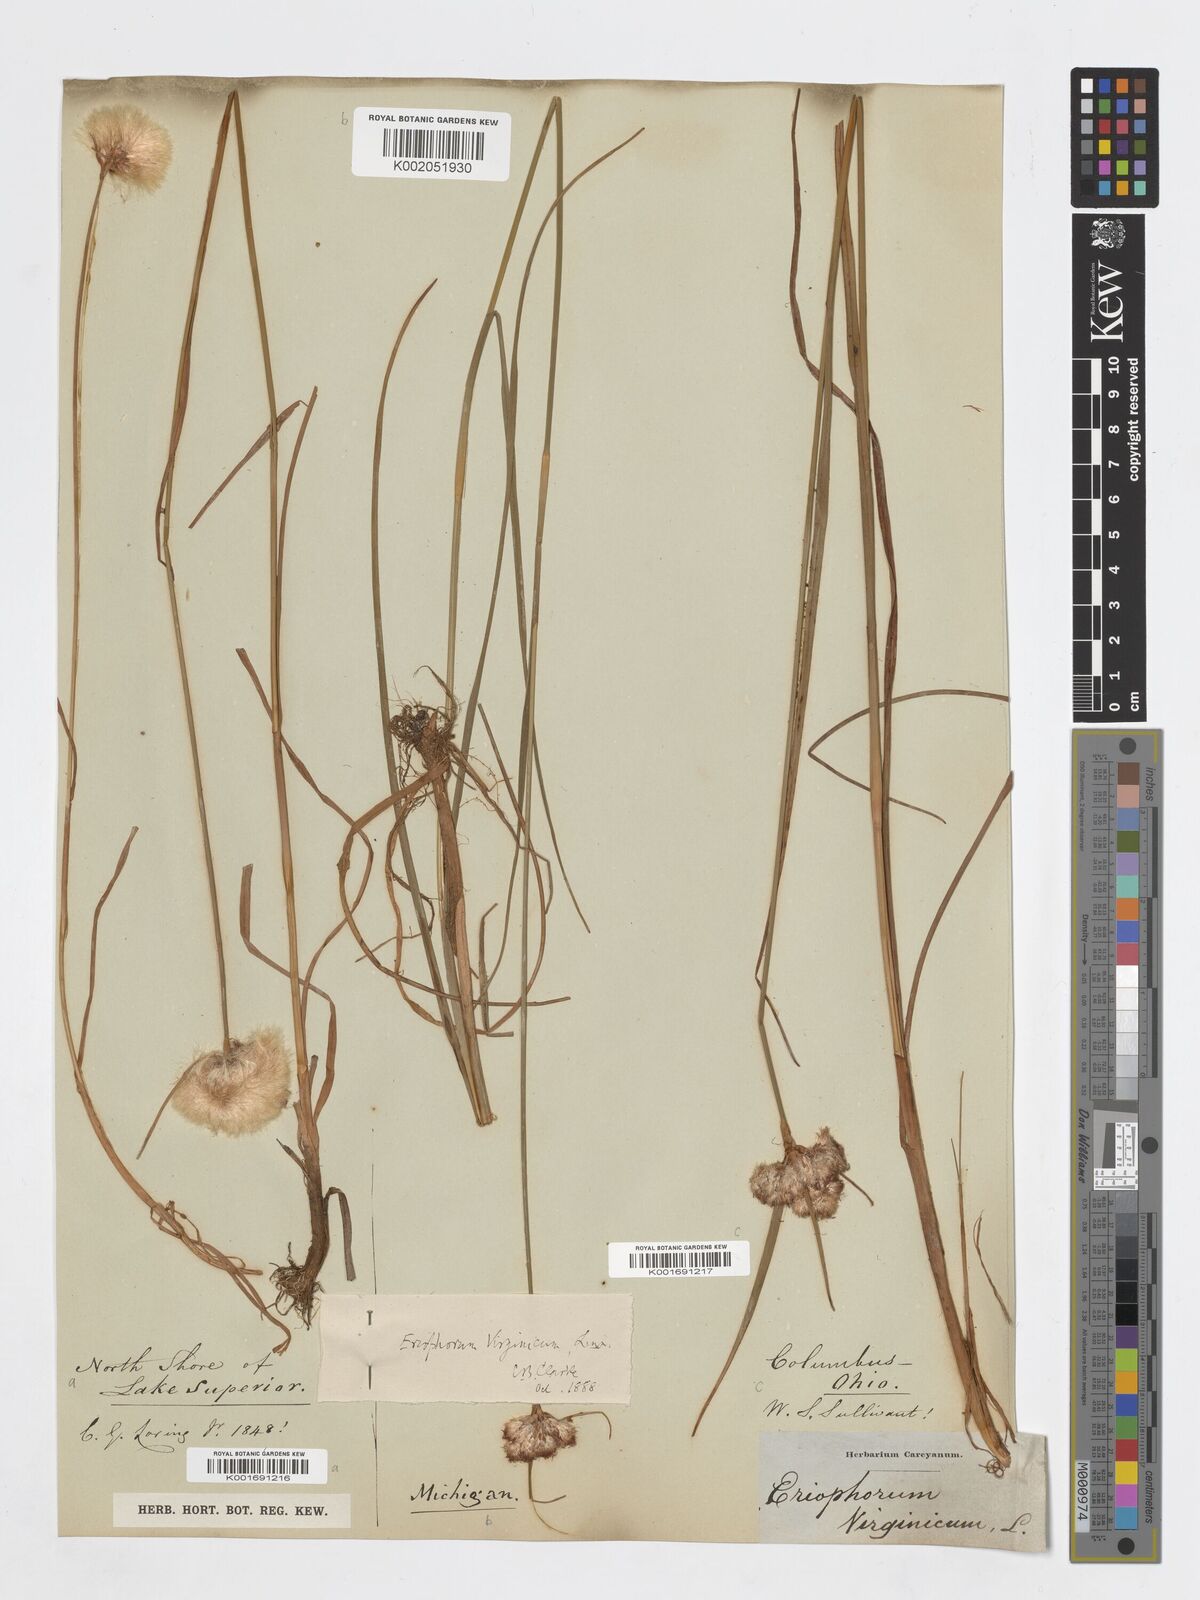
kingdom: Plantae
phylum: Tracheophyta
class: Liliopsida
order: Poales
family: Cyperaceae
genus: Eriophorum
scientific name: Eriophorum virginicum
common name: Tawny cottongrass
